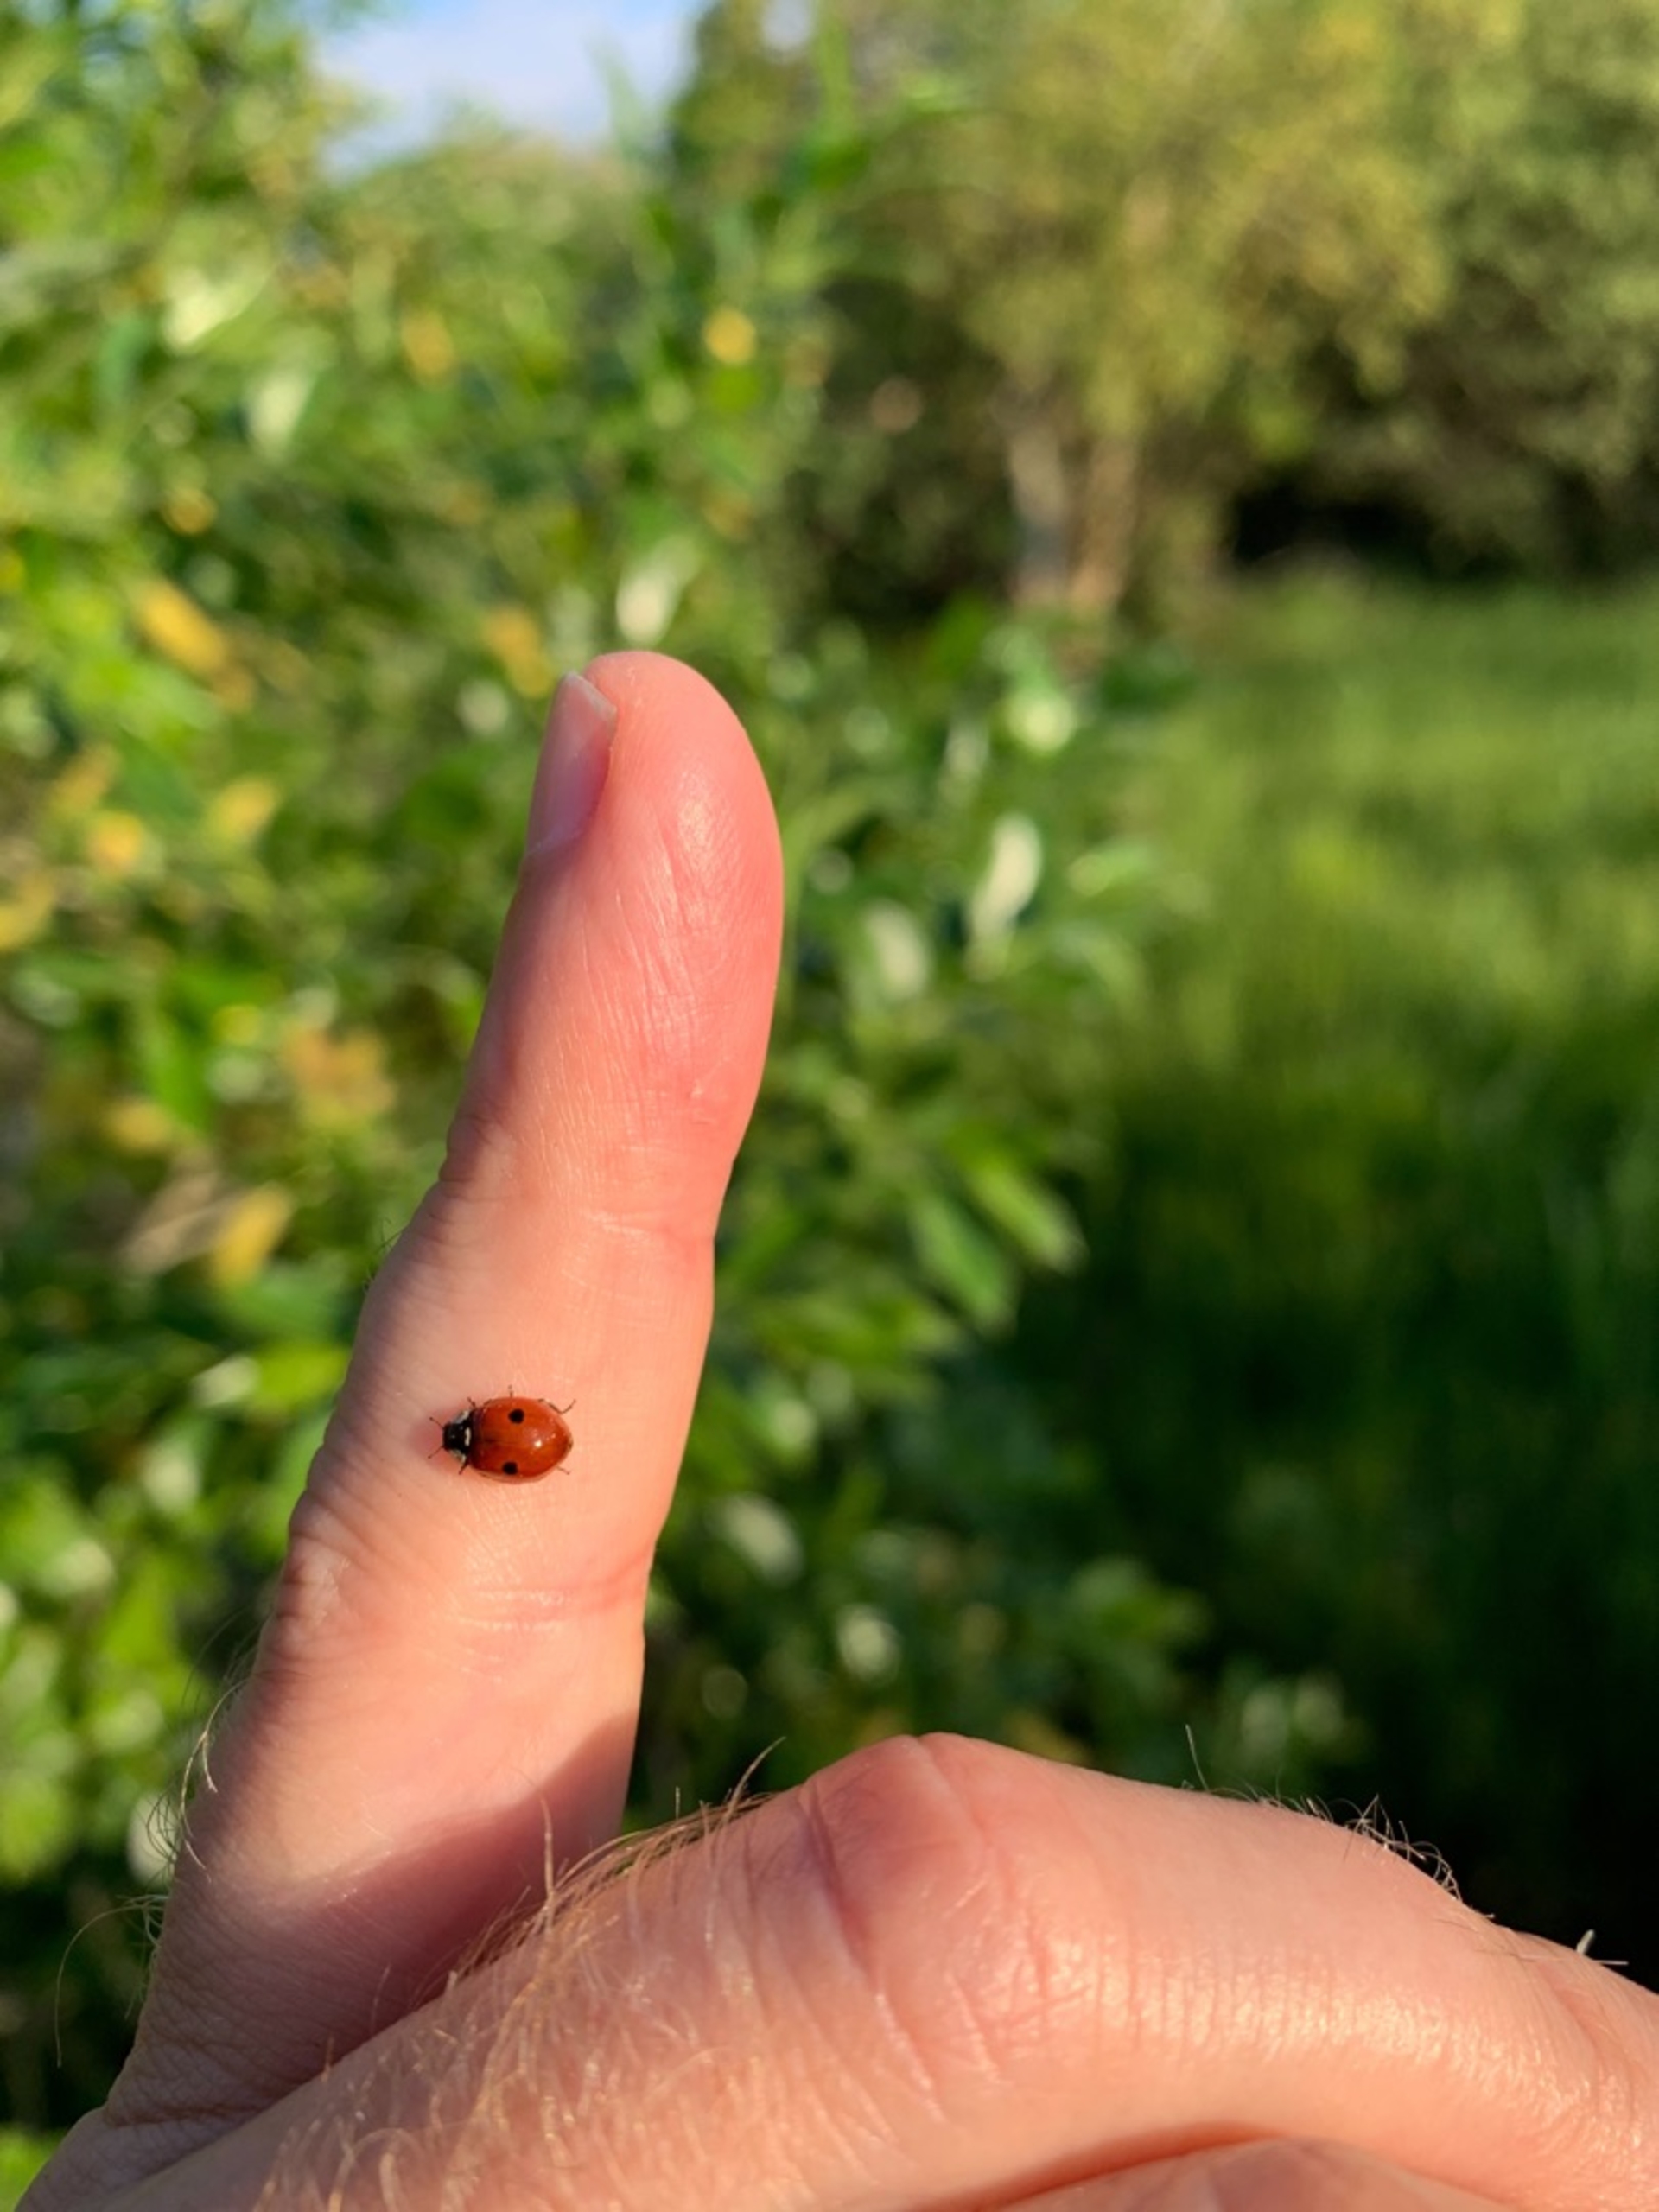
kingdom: Animalia
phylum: Arthropoda
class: Insecta
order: Coleoptera
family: Coccinellidae
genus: Adalia
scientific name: Adalia bipunctata
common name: Toplettet mariehøne
